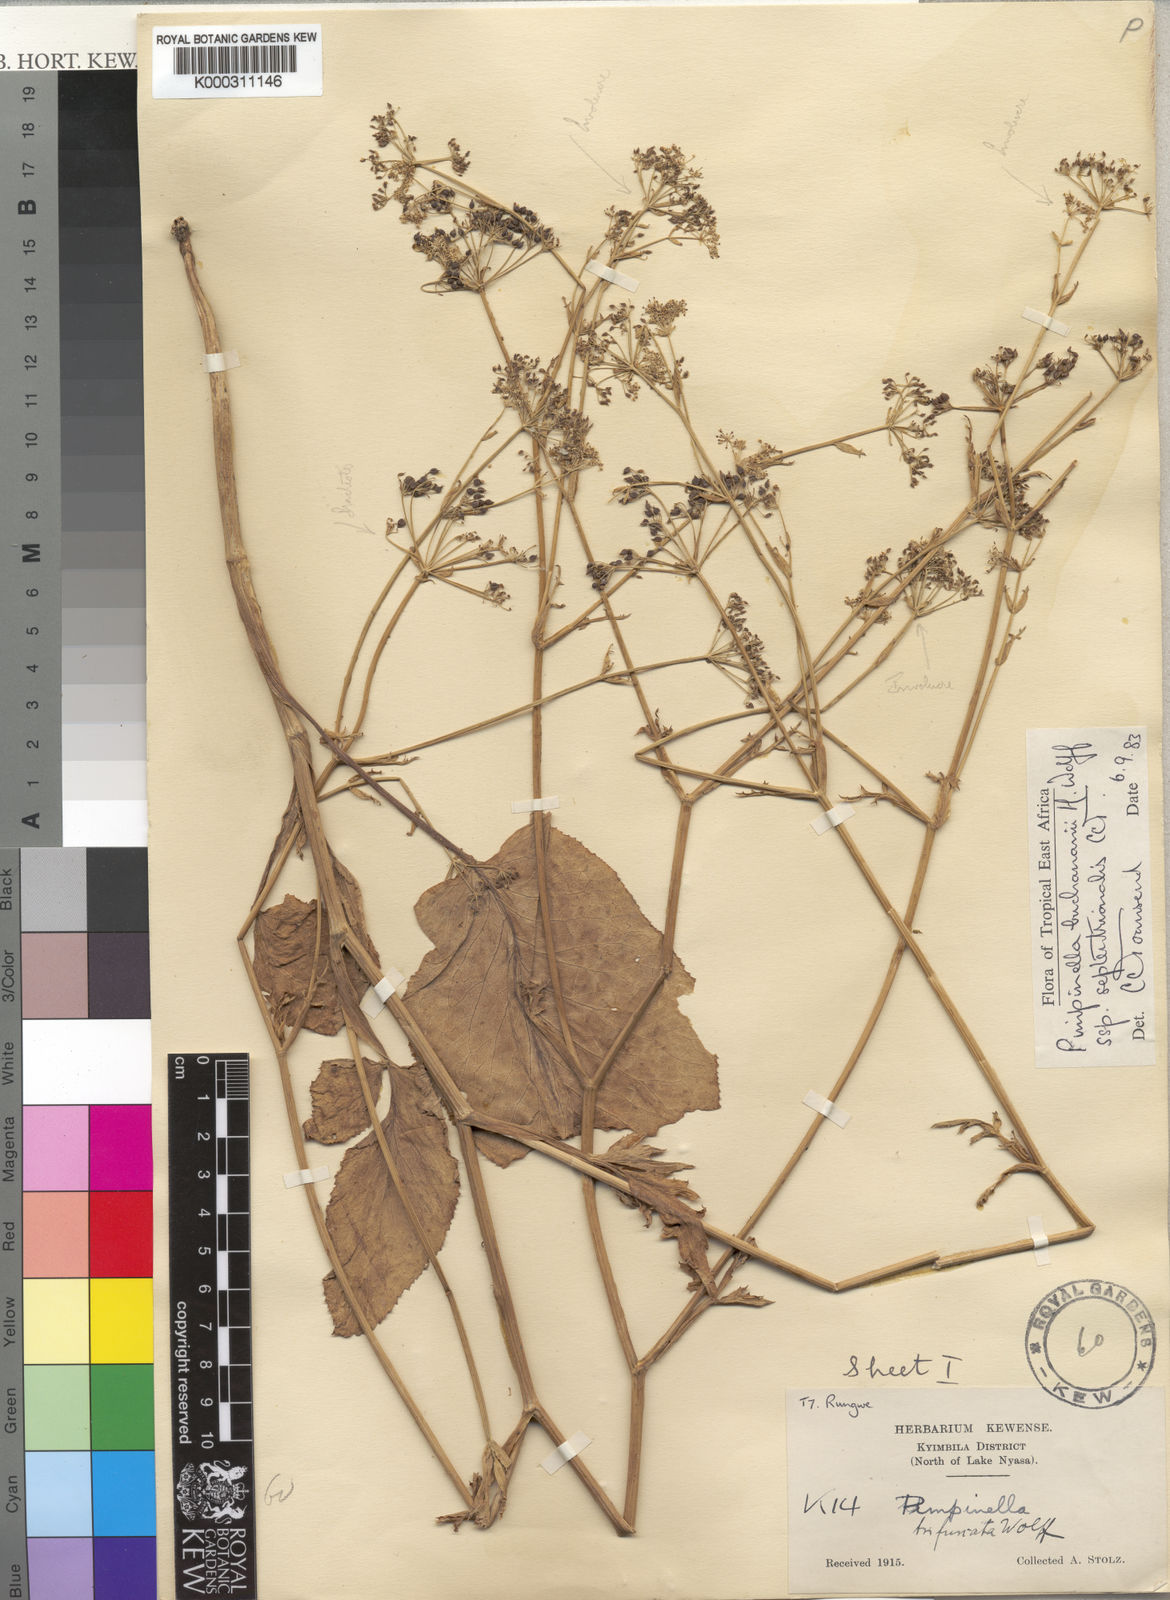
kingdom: Plantae
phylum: Tracheophyta
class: Magnoliopsida
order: Apiales
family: Apiaceae
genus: Pimpinella
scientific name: Pimpinella buchananii
